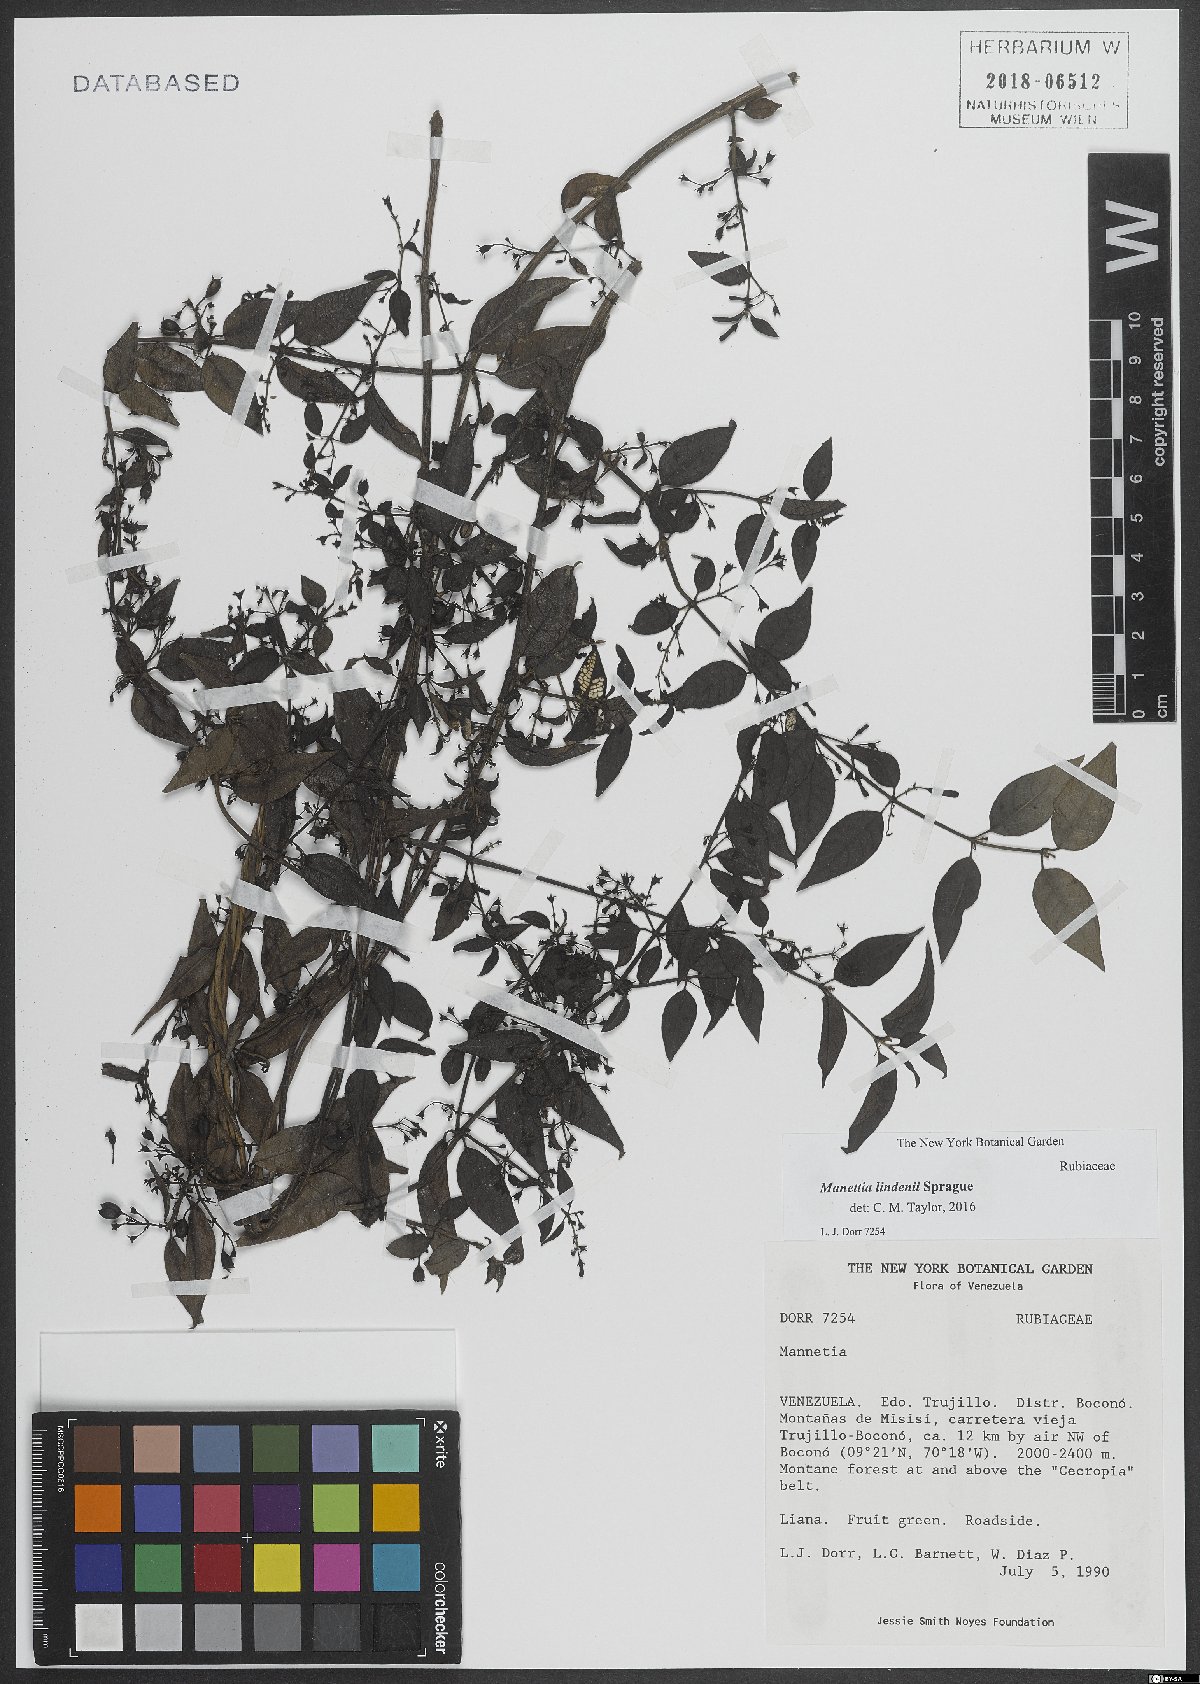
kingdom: Plantae
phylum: Tracheophyta
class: Magnoliopsida
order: Gentianales
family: Rubiaceae
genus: Manettia
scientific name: Manettia lindenii
